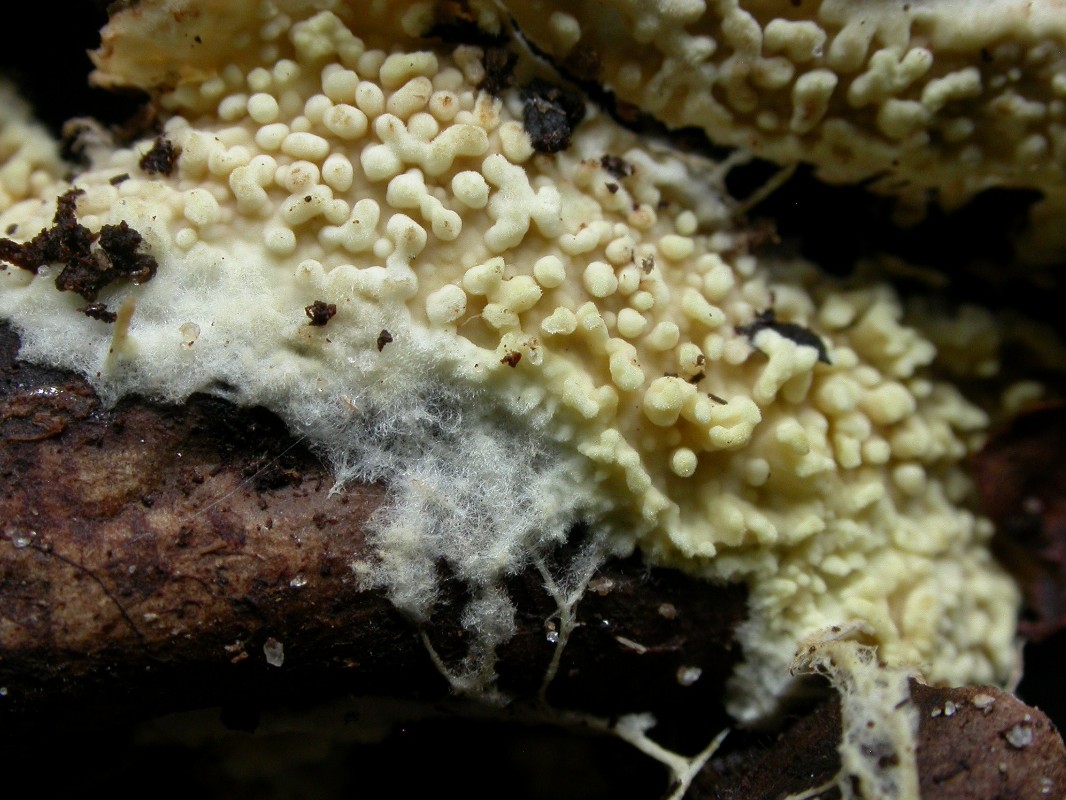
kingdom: Fungi
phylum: Basidiomycota
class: Agaricomycetes
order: Agaricales
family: Stephanosporaceae
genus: Cristinia
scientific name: Cristinia eichleri
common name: tandet citrushinde
